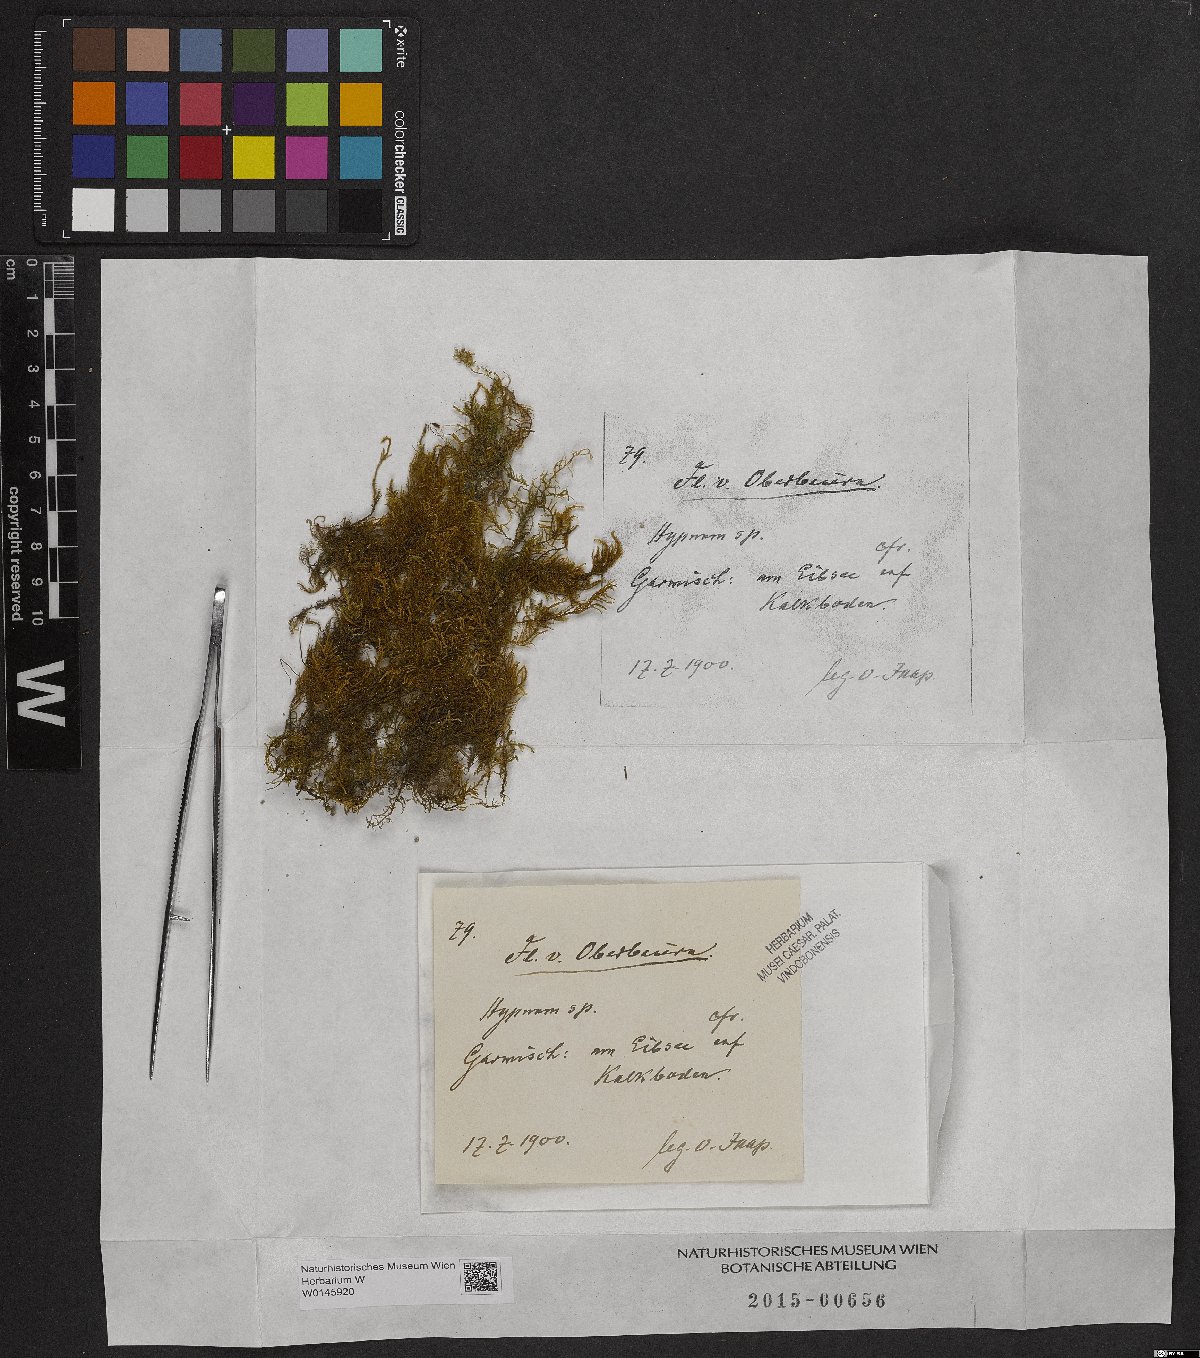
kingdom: Plantae
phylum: Bryophyta
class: Bryopsida
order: Hypnales
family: Hypnaceae
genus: Hypnum
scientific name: Hypnum
